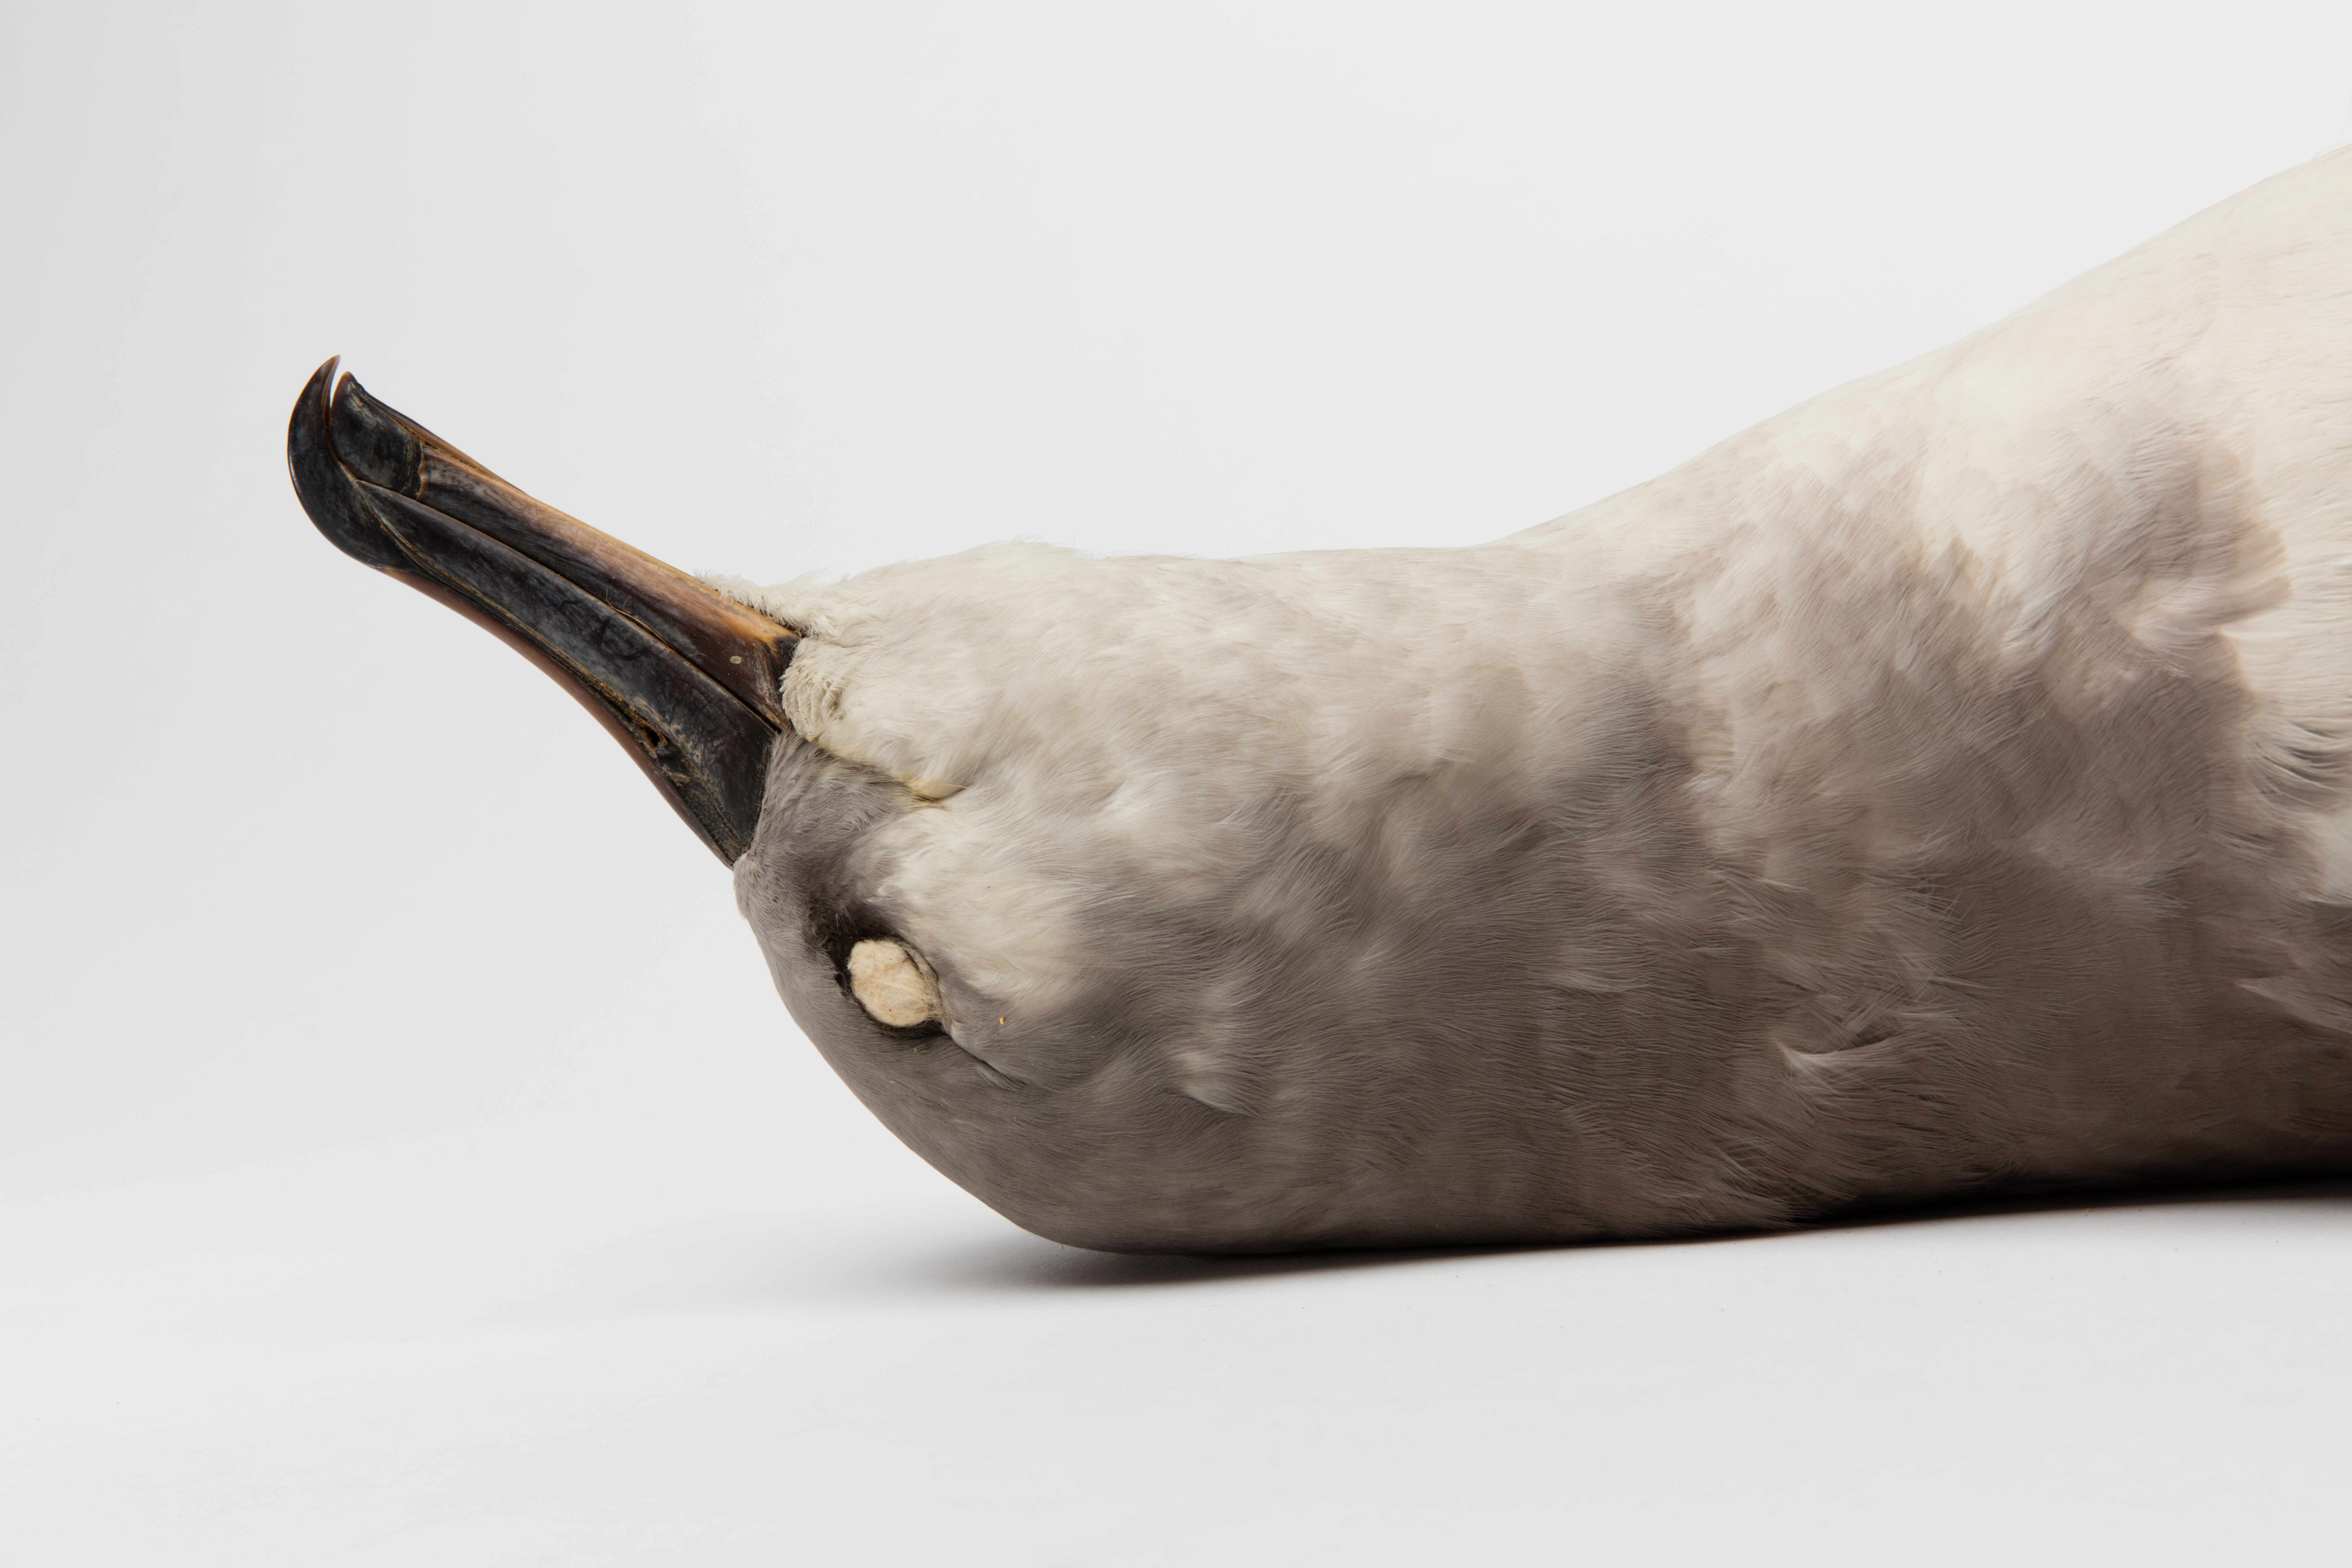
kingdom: Animalia
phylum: Chordata
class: Aves
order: Procellariiformes
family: Diomedeidae
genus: Thalassarche
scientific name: Thalassarche chrysostoma
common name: Grey-headed albatross
